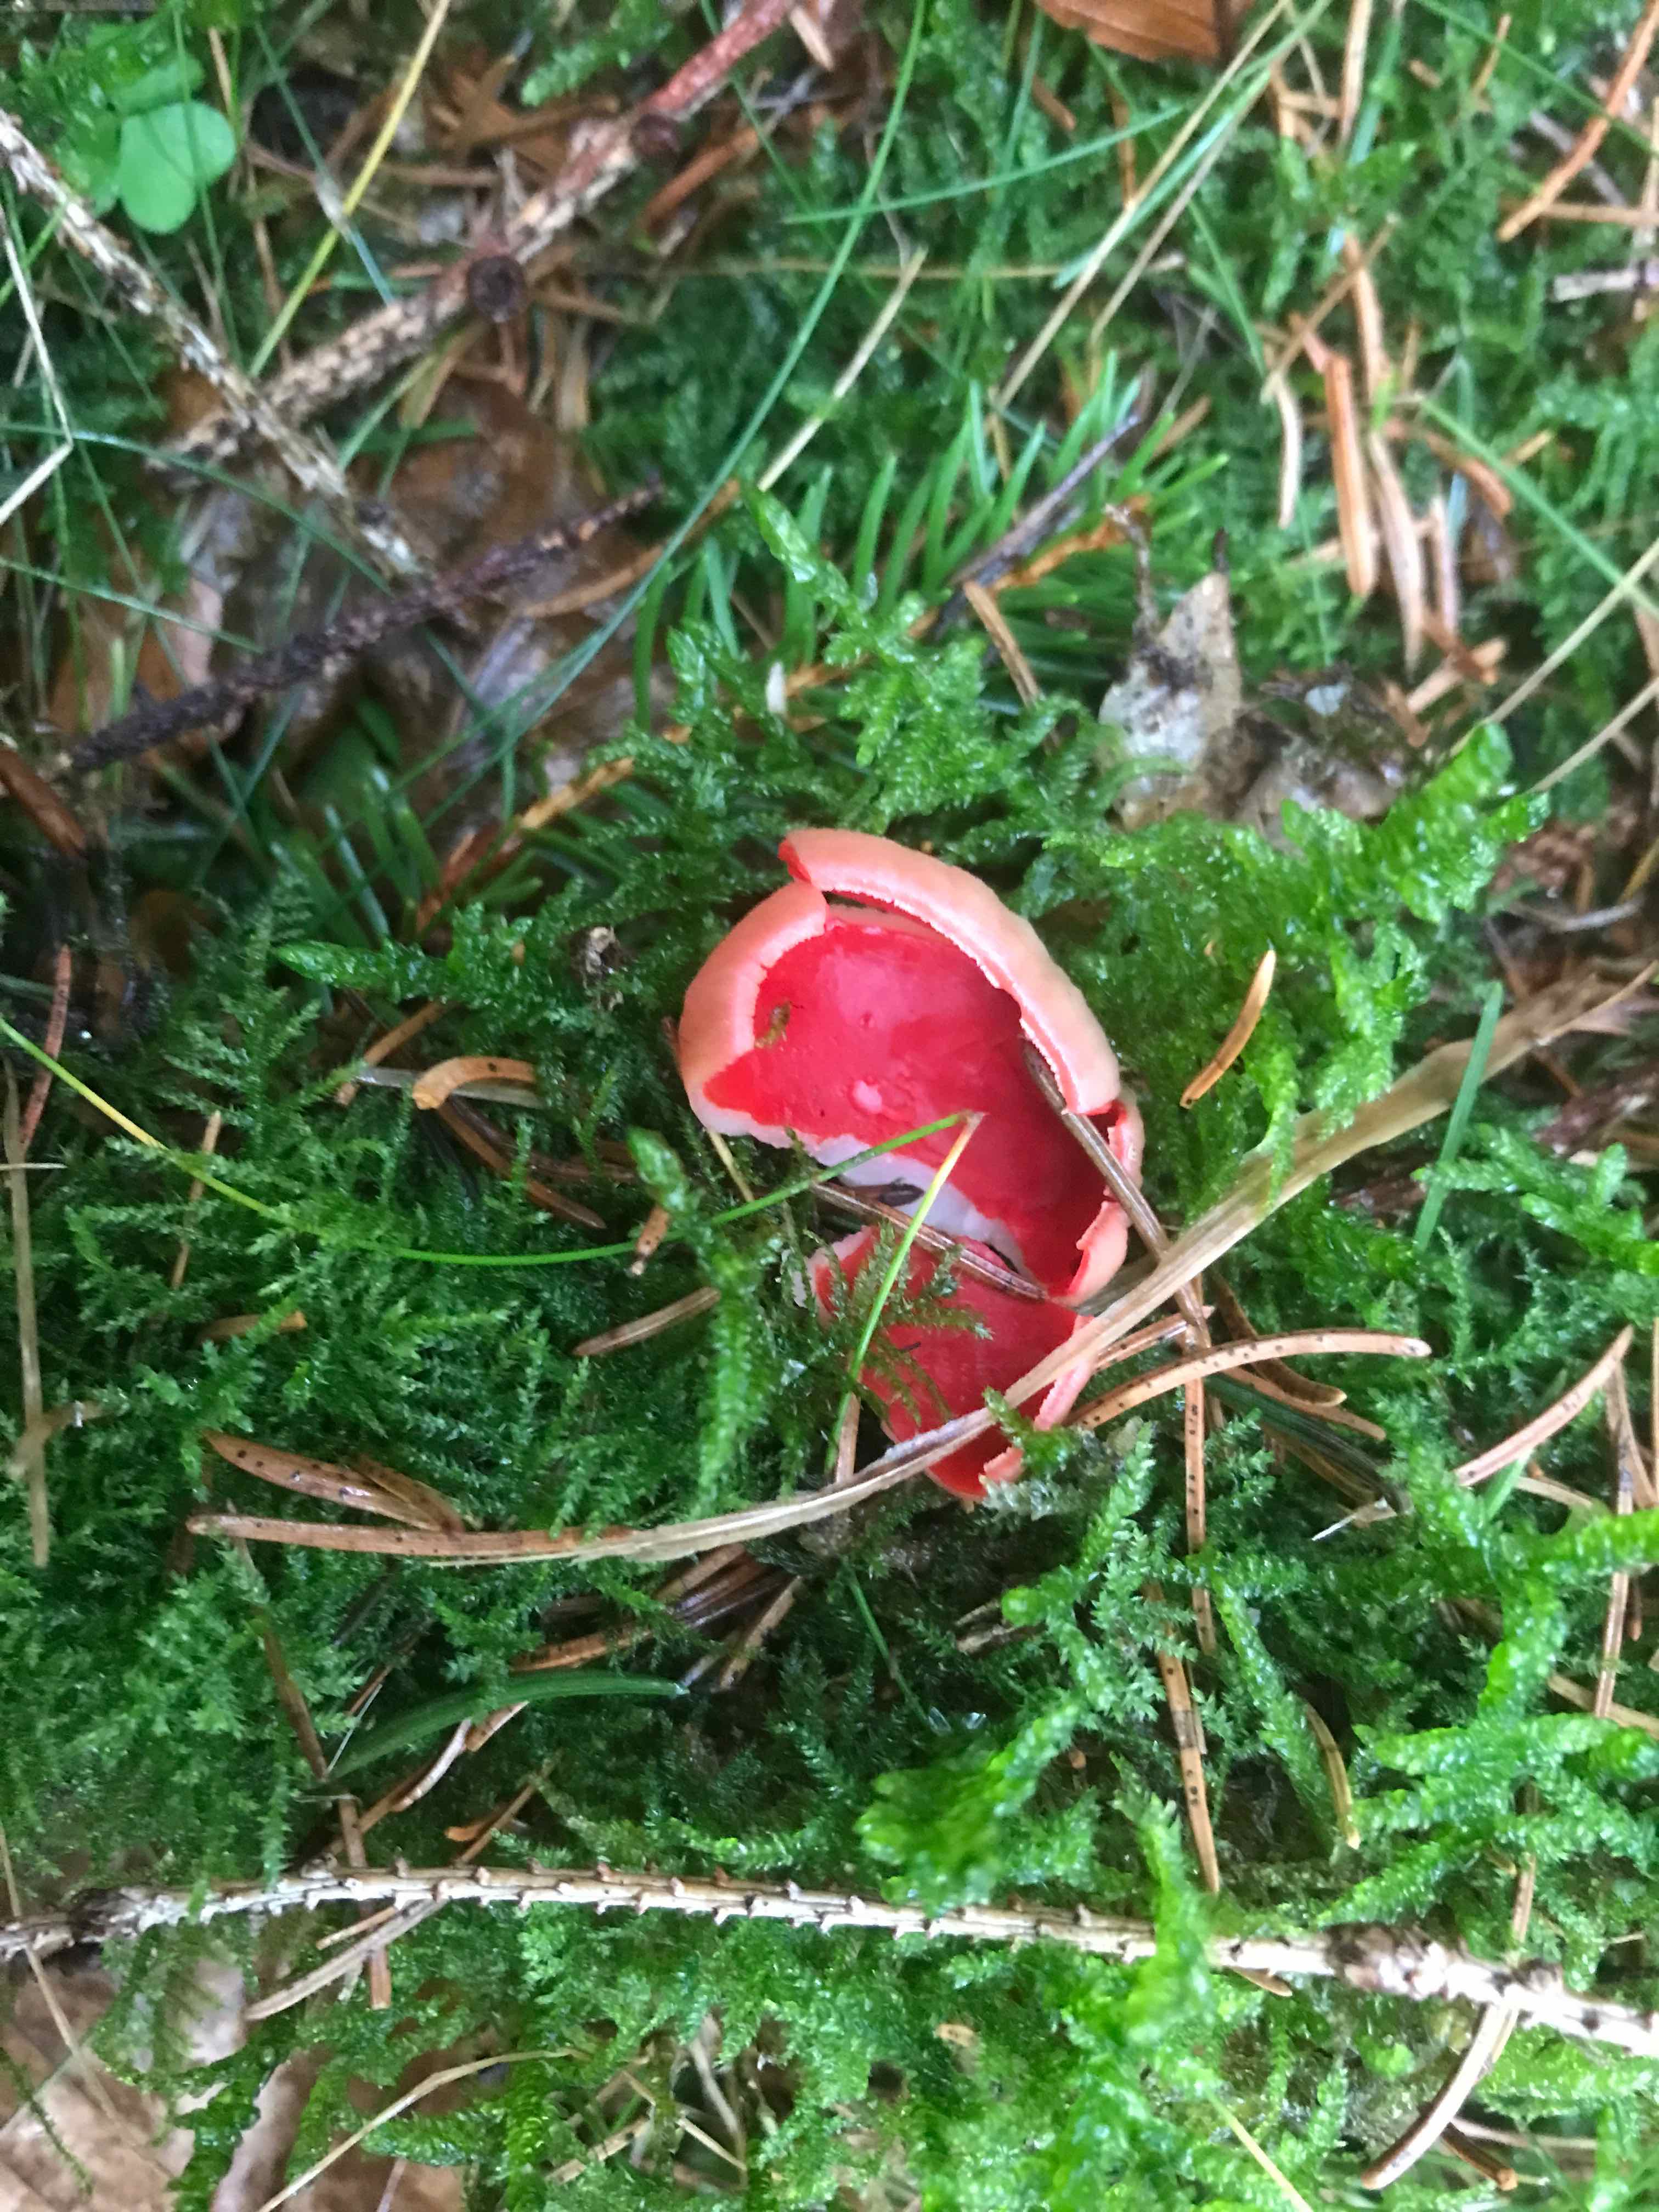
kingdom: Fungi
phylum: Ascomycota
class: Pezizomycetes
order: Pezizales
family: Sarcoscyphaceae
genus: Sarcoscypha
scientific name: Sarcoscypha austriaca
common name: krølhåret pragtbæger
